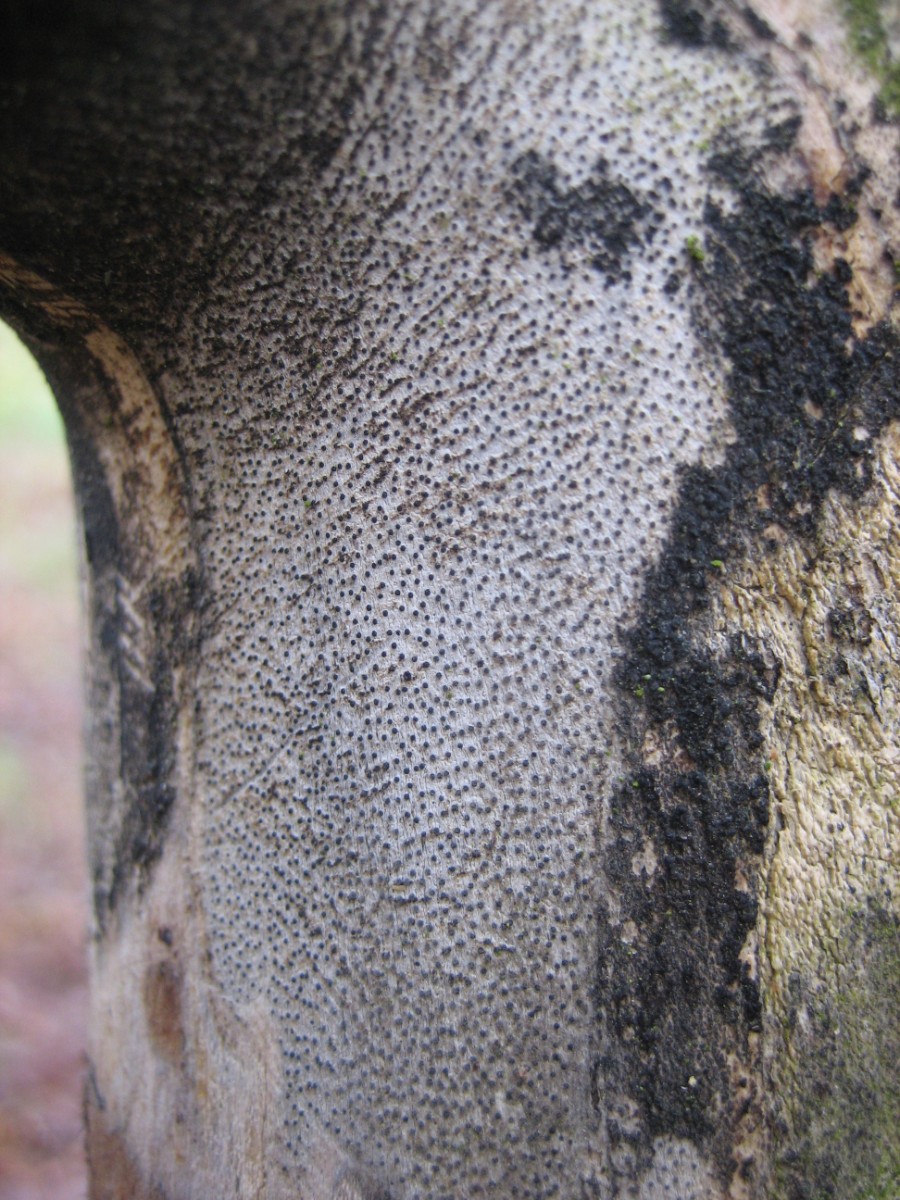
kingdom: Fungi
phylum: Ascomycota
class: Sordariomycetes
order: Xylariales
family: Diatrypaceae
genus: Eutypa
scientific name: Eutypa maura
